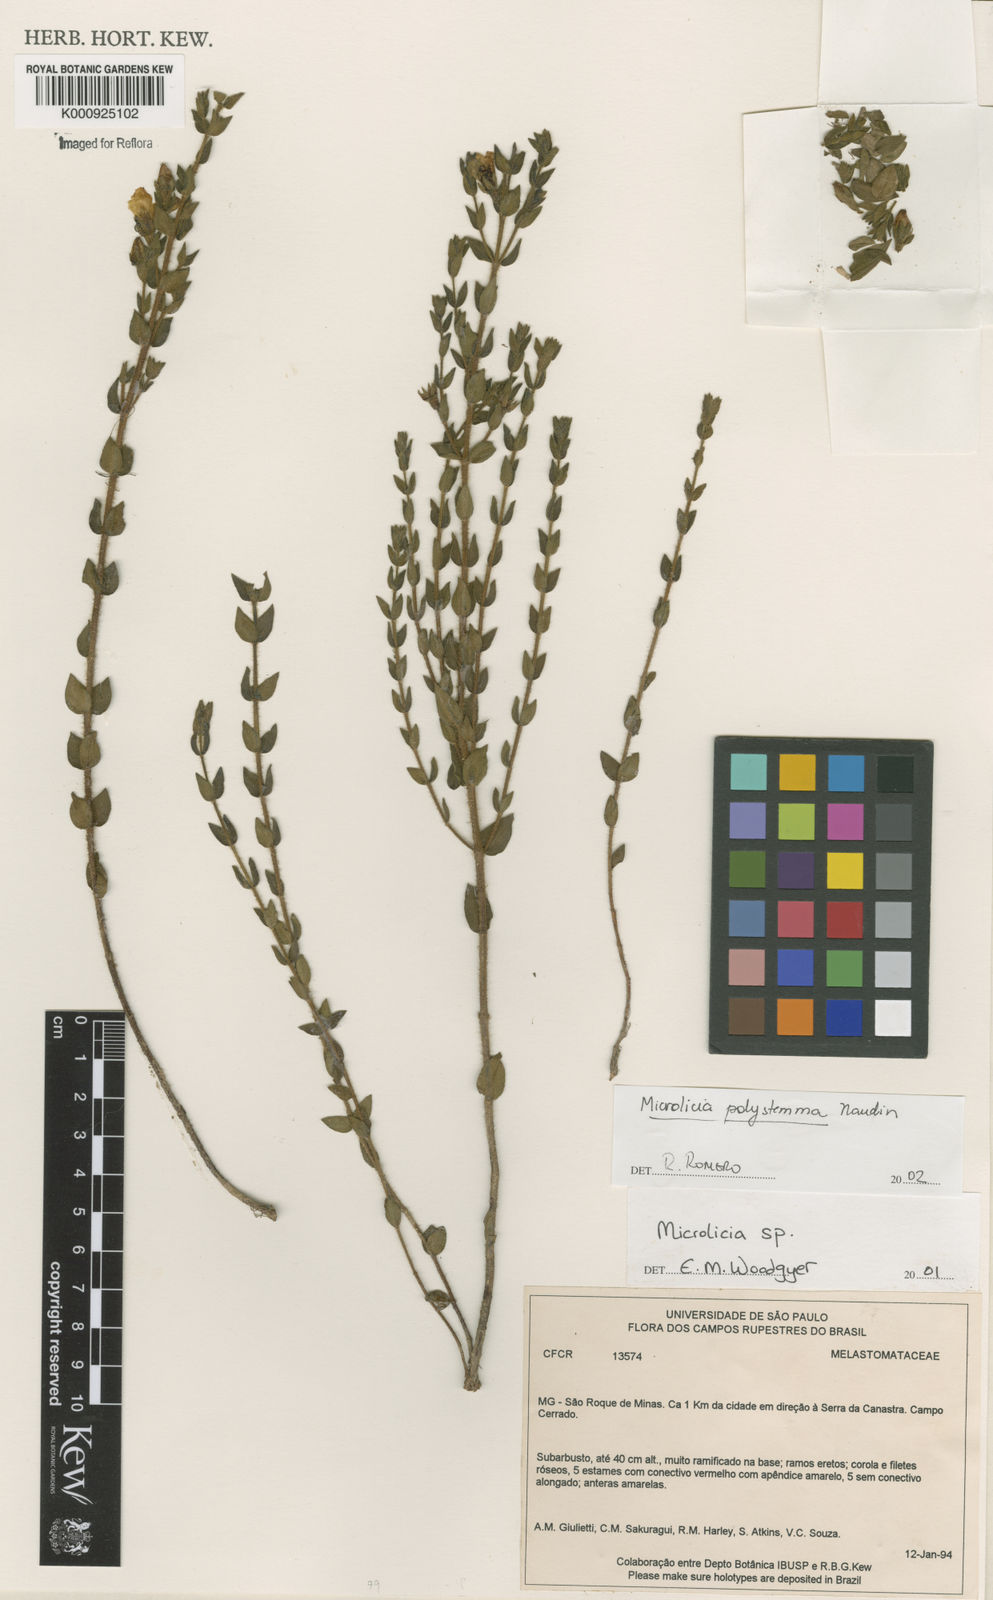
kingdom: Plantae
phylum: Tracheophyta
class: Magnoliopsida
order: Myrtales
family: Melastomataceae
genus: Microlicia
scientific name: Microlicia polystemma
